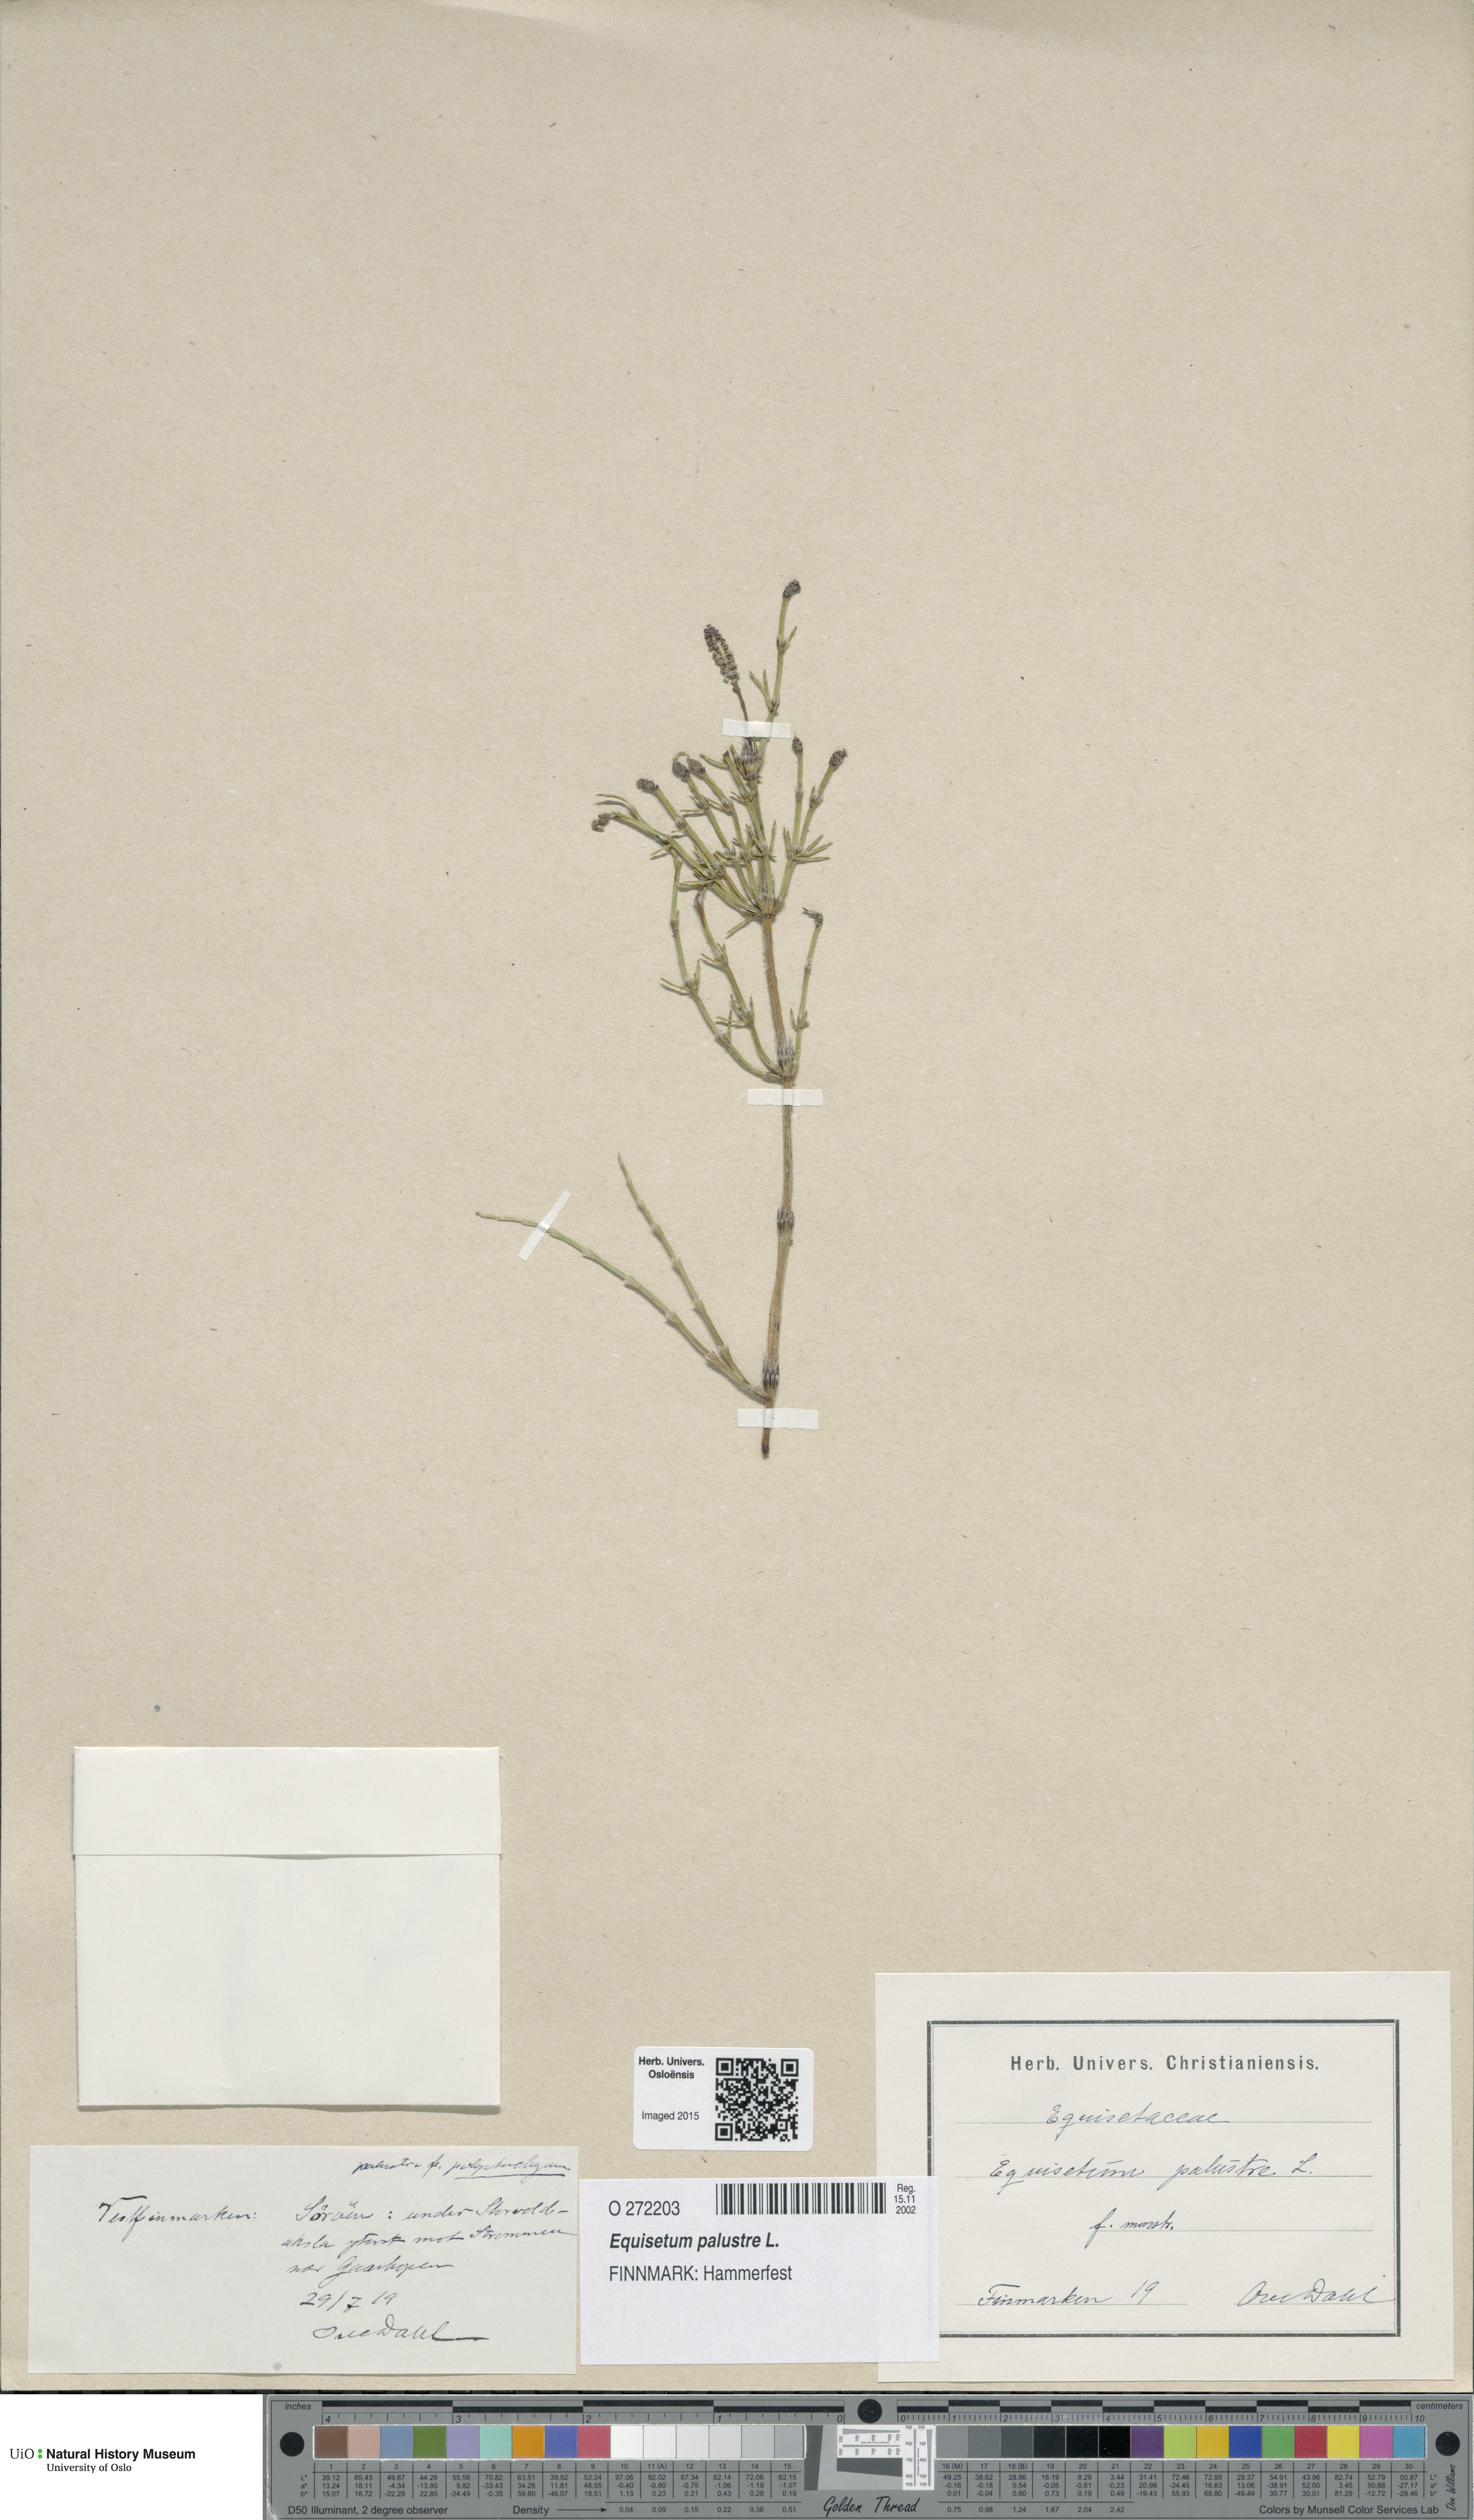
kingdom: Plantae
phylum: Tracheophyta
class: Polypodiopsida
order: Equisetales
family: Equisetaceae
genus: Equisetum
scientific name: Equisetum palustre
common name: Marsh horsetail
